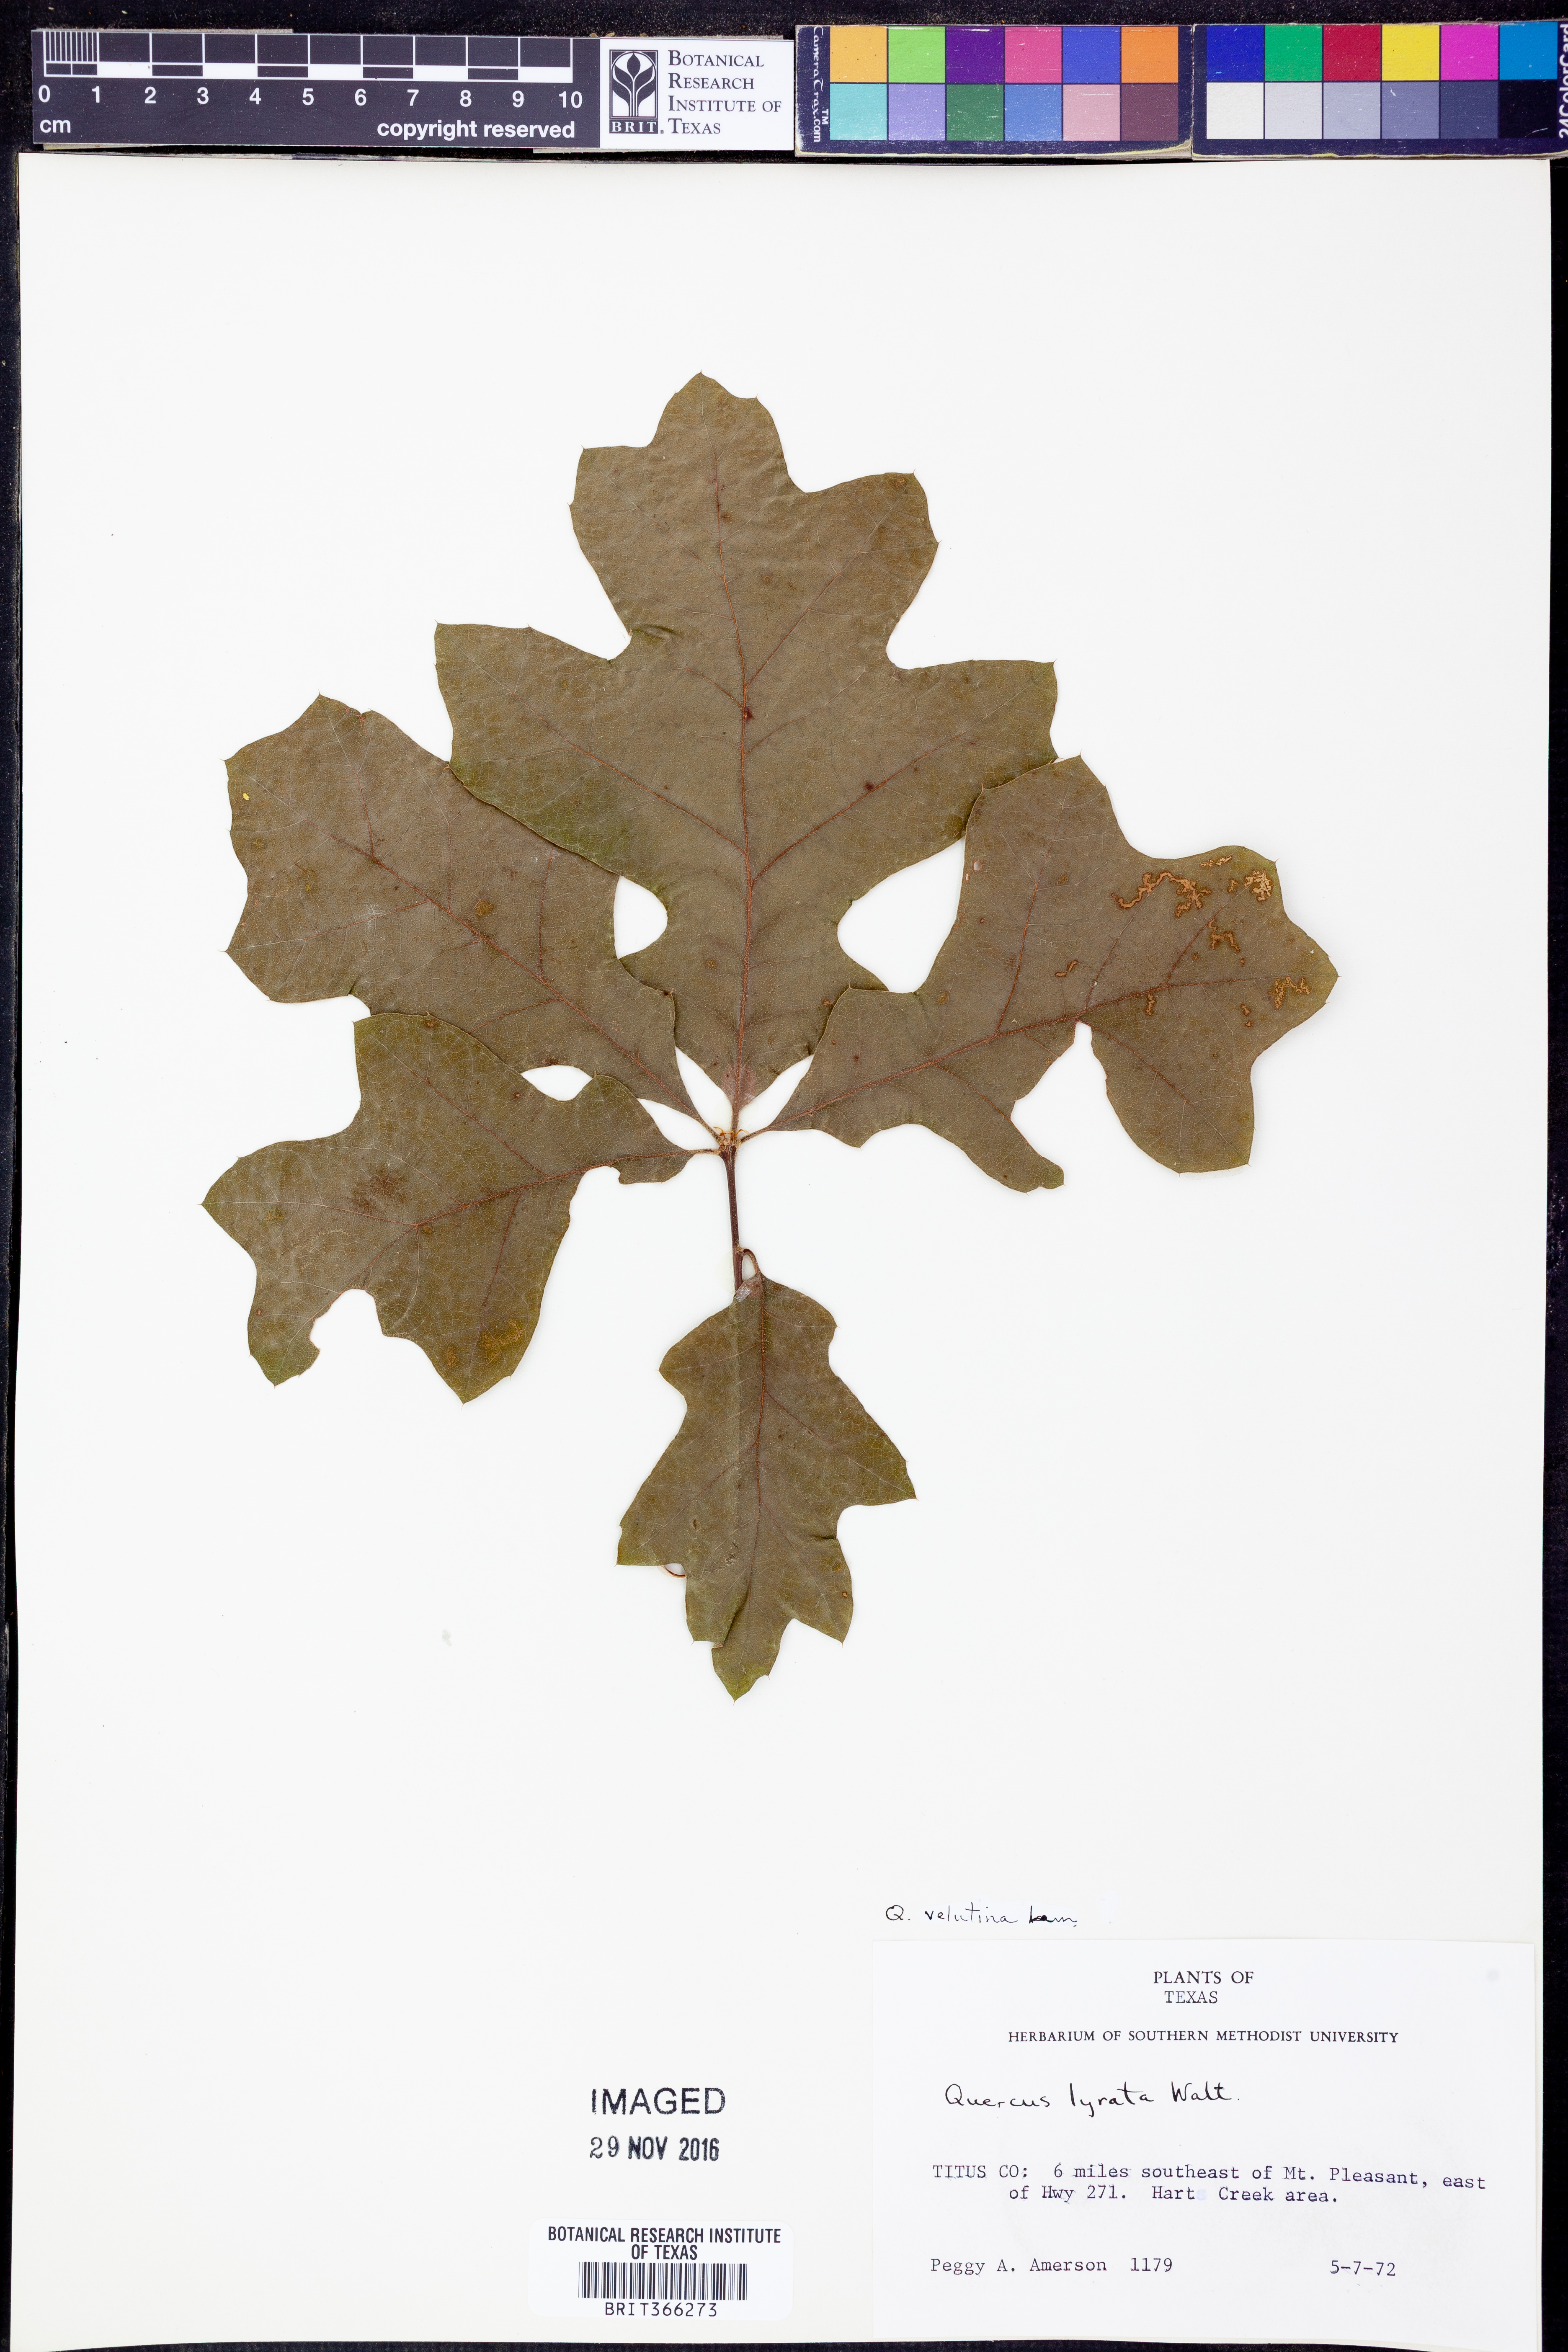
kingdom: Plantae
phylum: Tracheophyta
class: Magnoliopsida
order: Fagales
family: Fagaceae
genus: Quercus
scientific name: Quercus velutina
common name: Black oak
